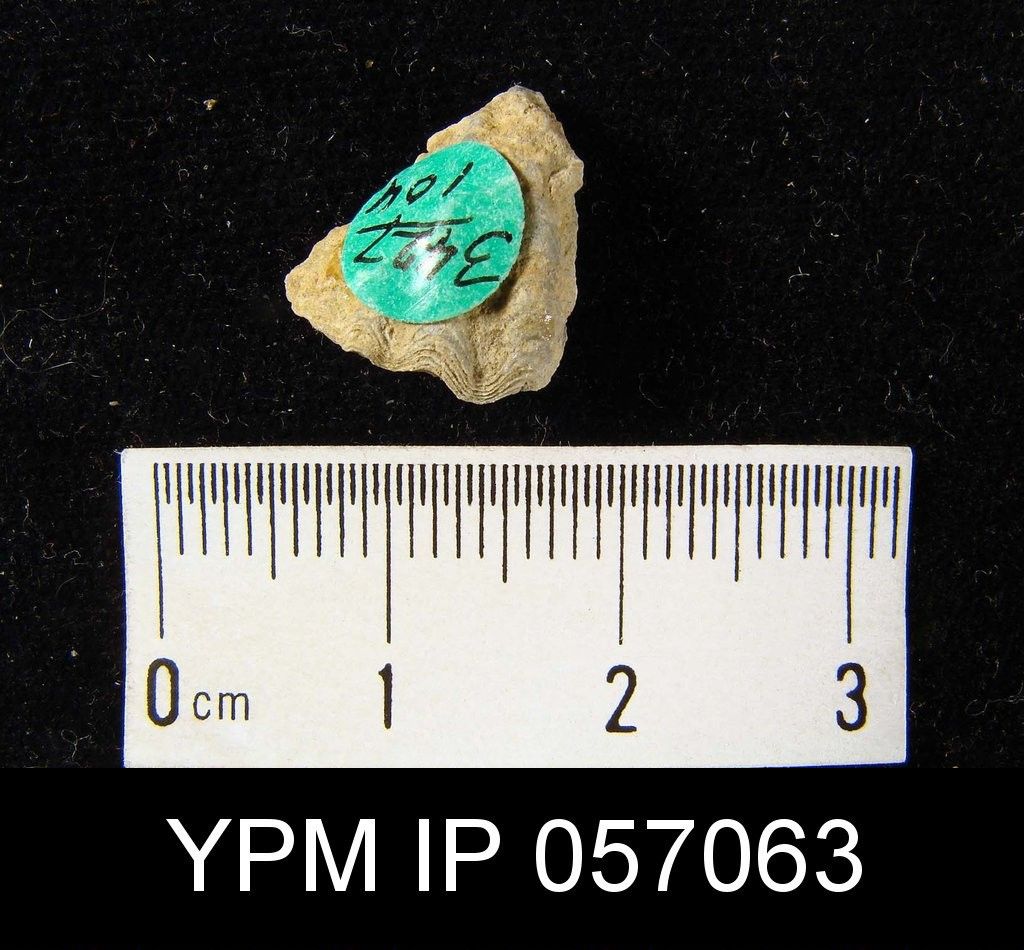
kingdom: Animalia
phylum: Brachiopoda
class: Rhynchonellata
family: Delthyrididae
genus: Kozlowskiellina
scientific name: Kozlowskiellina
